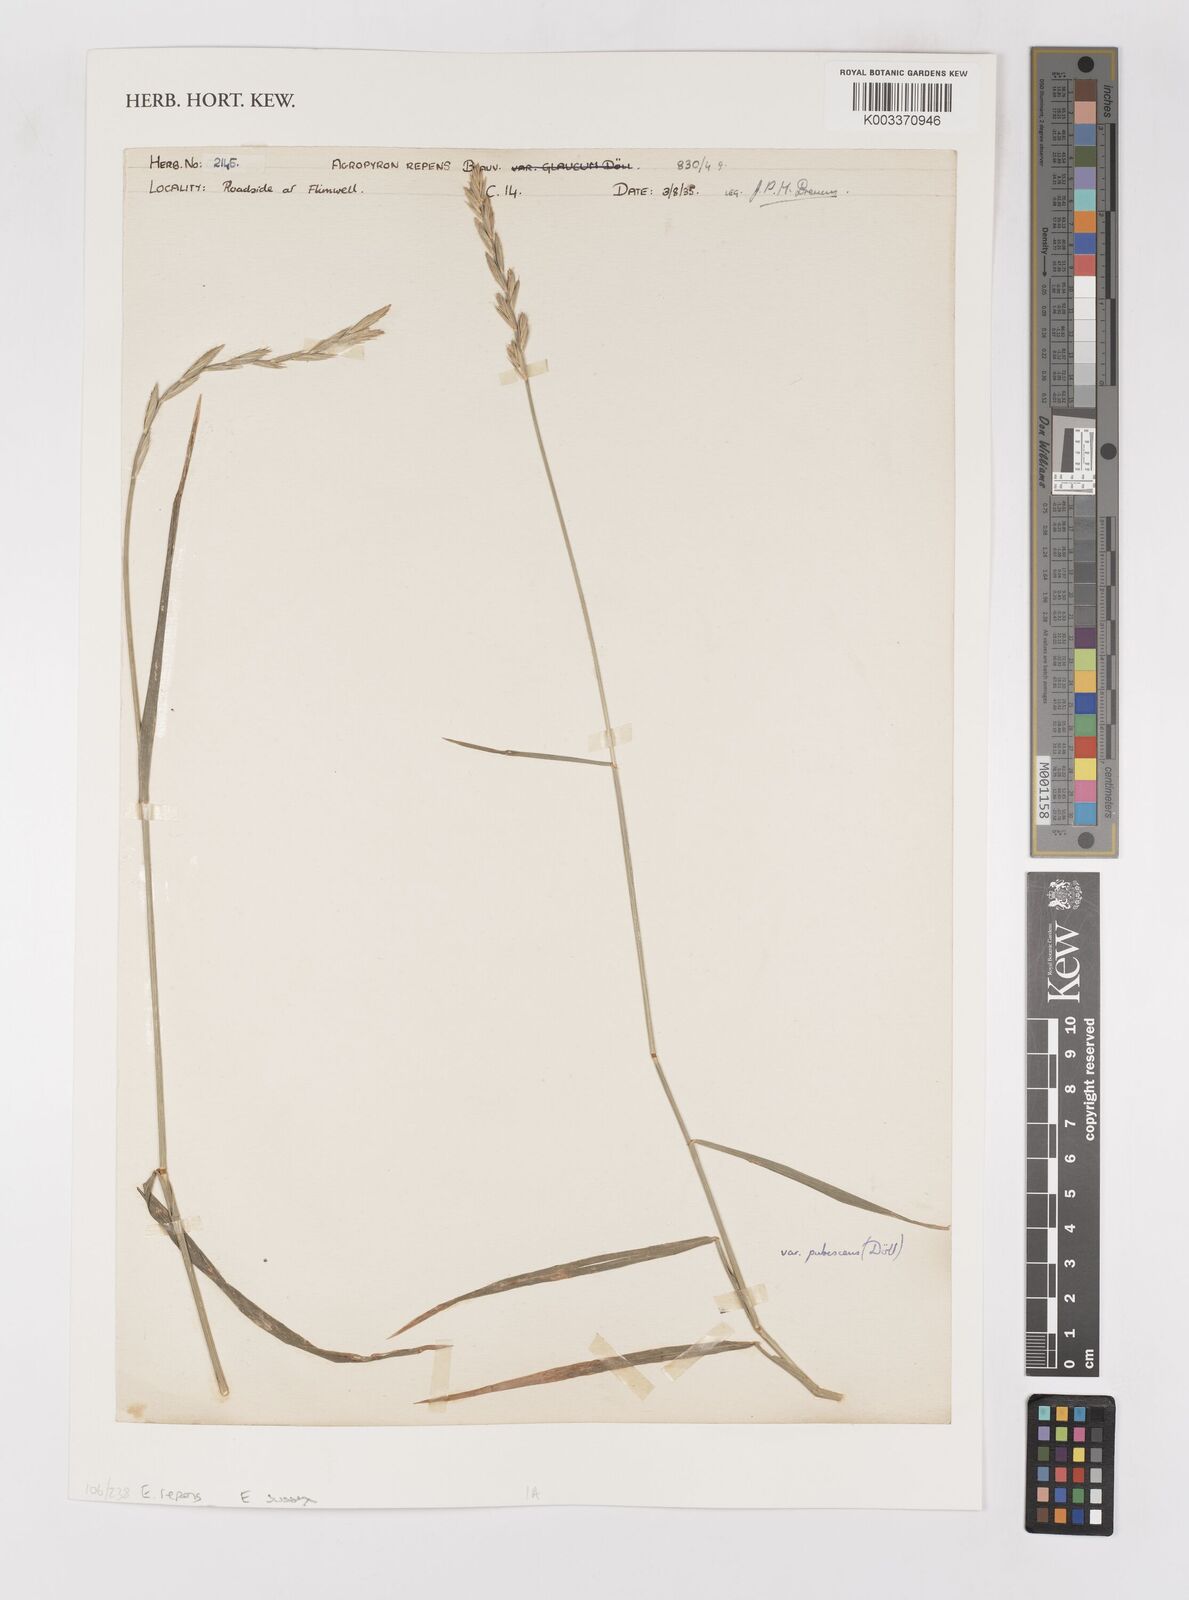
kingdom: Plantae
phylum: Tracheophyta
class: Liliopsida
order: Poales
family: Poaceae
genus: Elymus
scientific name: Elymus repens
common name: Quackgrass
